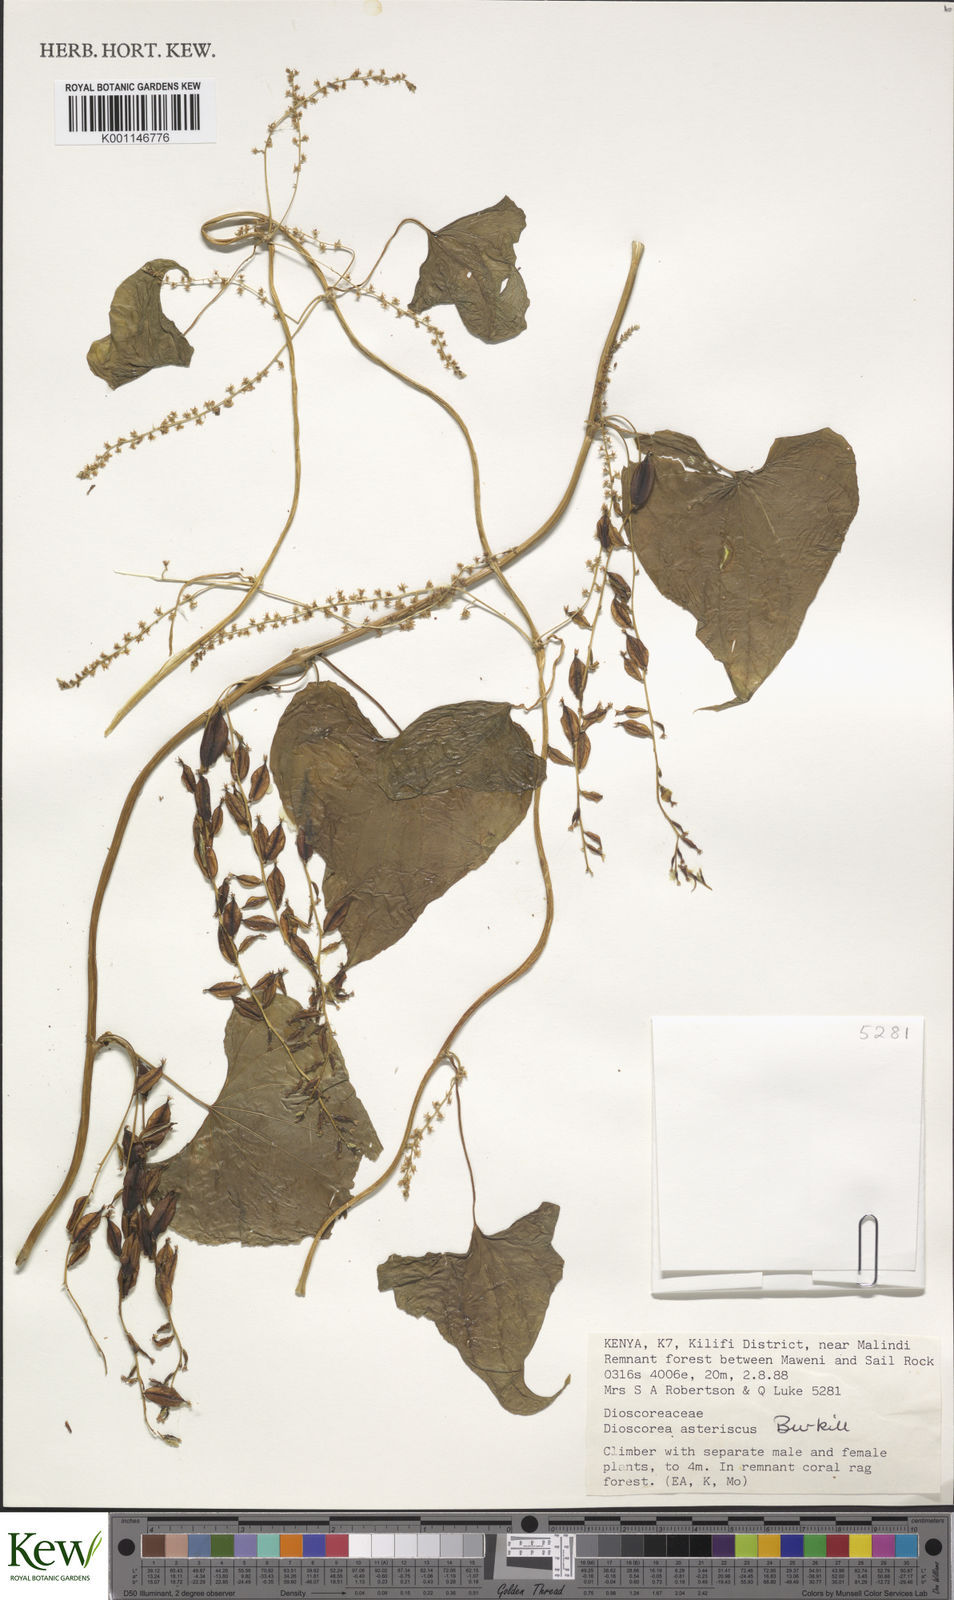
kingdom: Plantae
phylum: Tracheophyta
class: Liliopsida
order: Dioscoreales
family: Dioscoreaceae
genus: Dioscorea
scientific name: Dioscorea asteriscus
